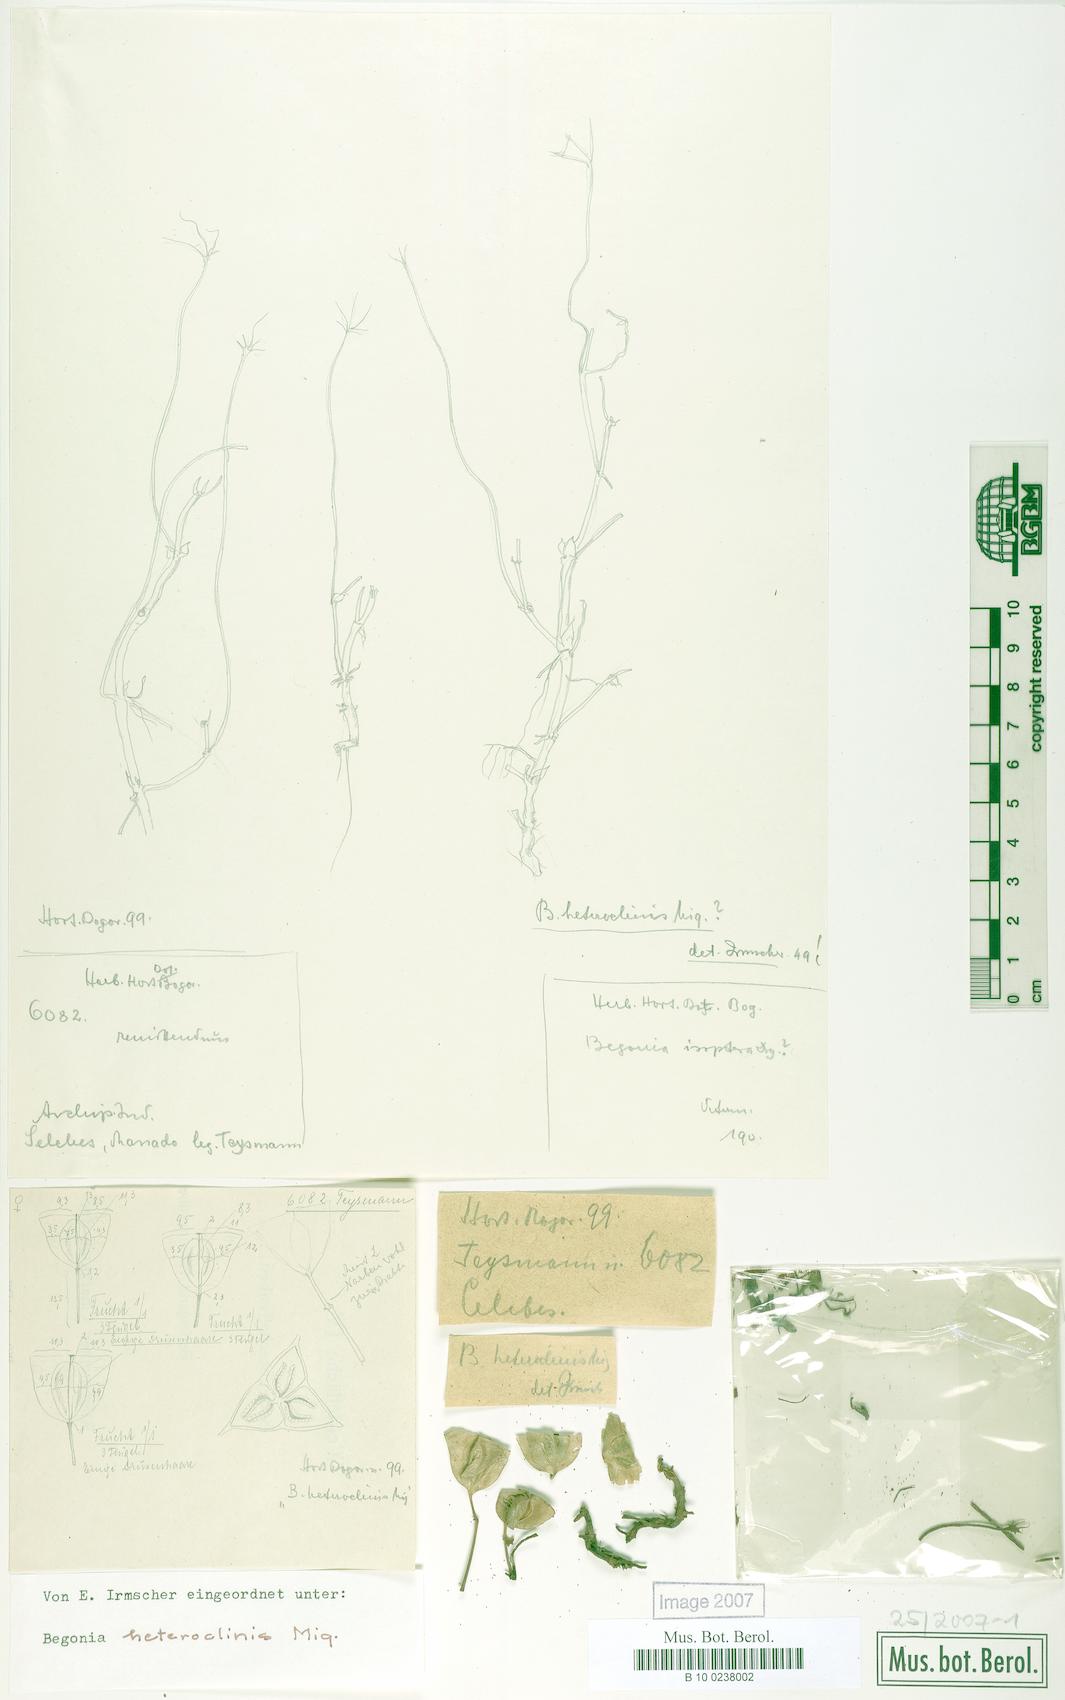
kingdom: Plantae
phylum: Tracheophyta
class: Magnoliopsida
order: Cucurbitales
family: Begoniaceae
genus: Begonia
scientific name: Begonia heteroclinis
